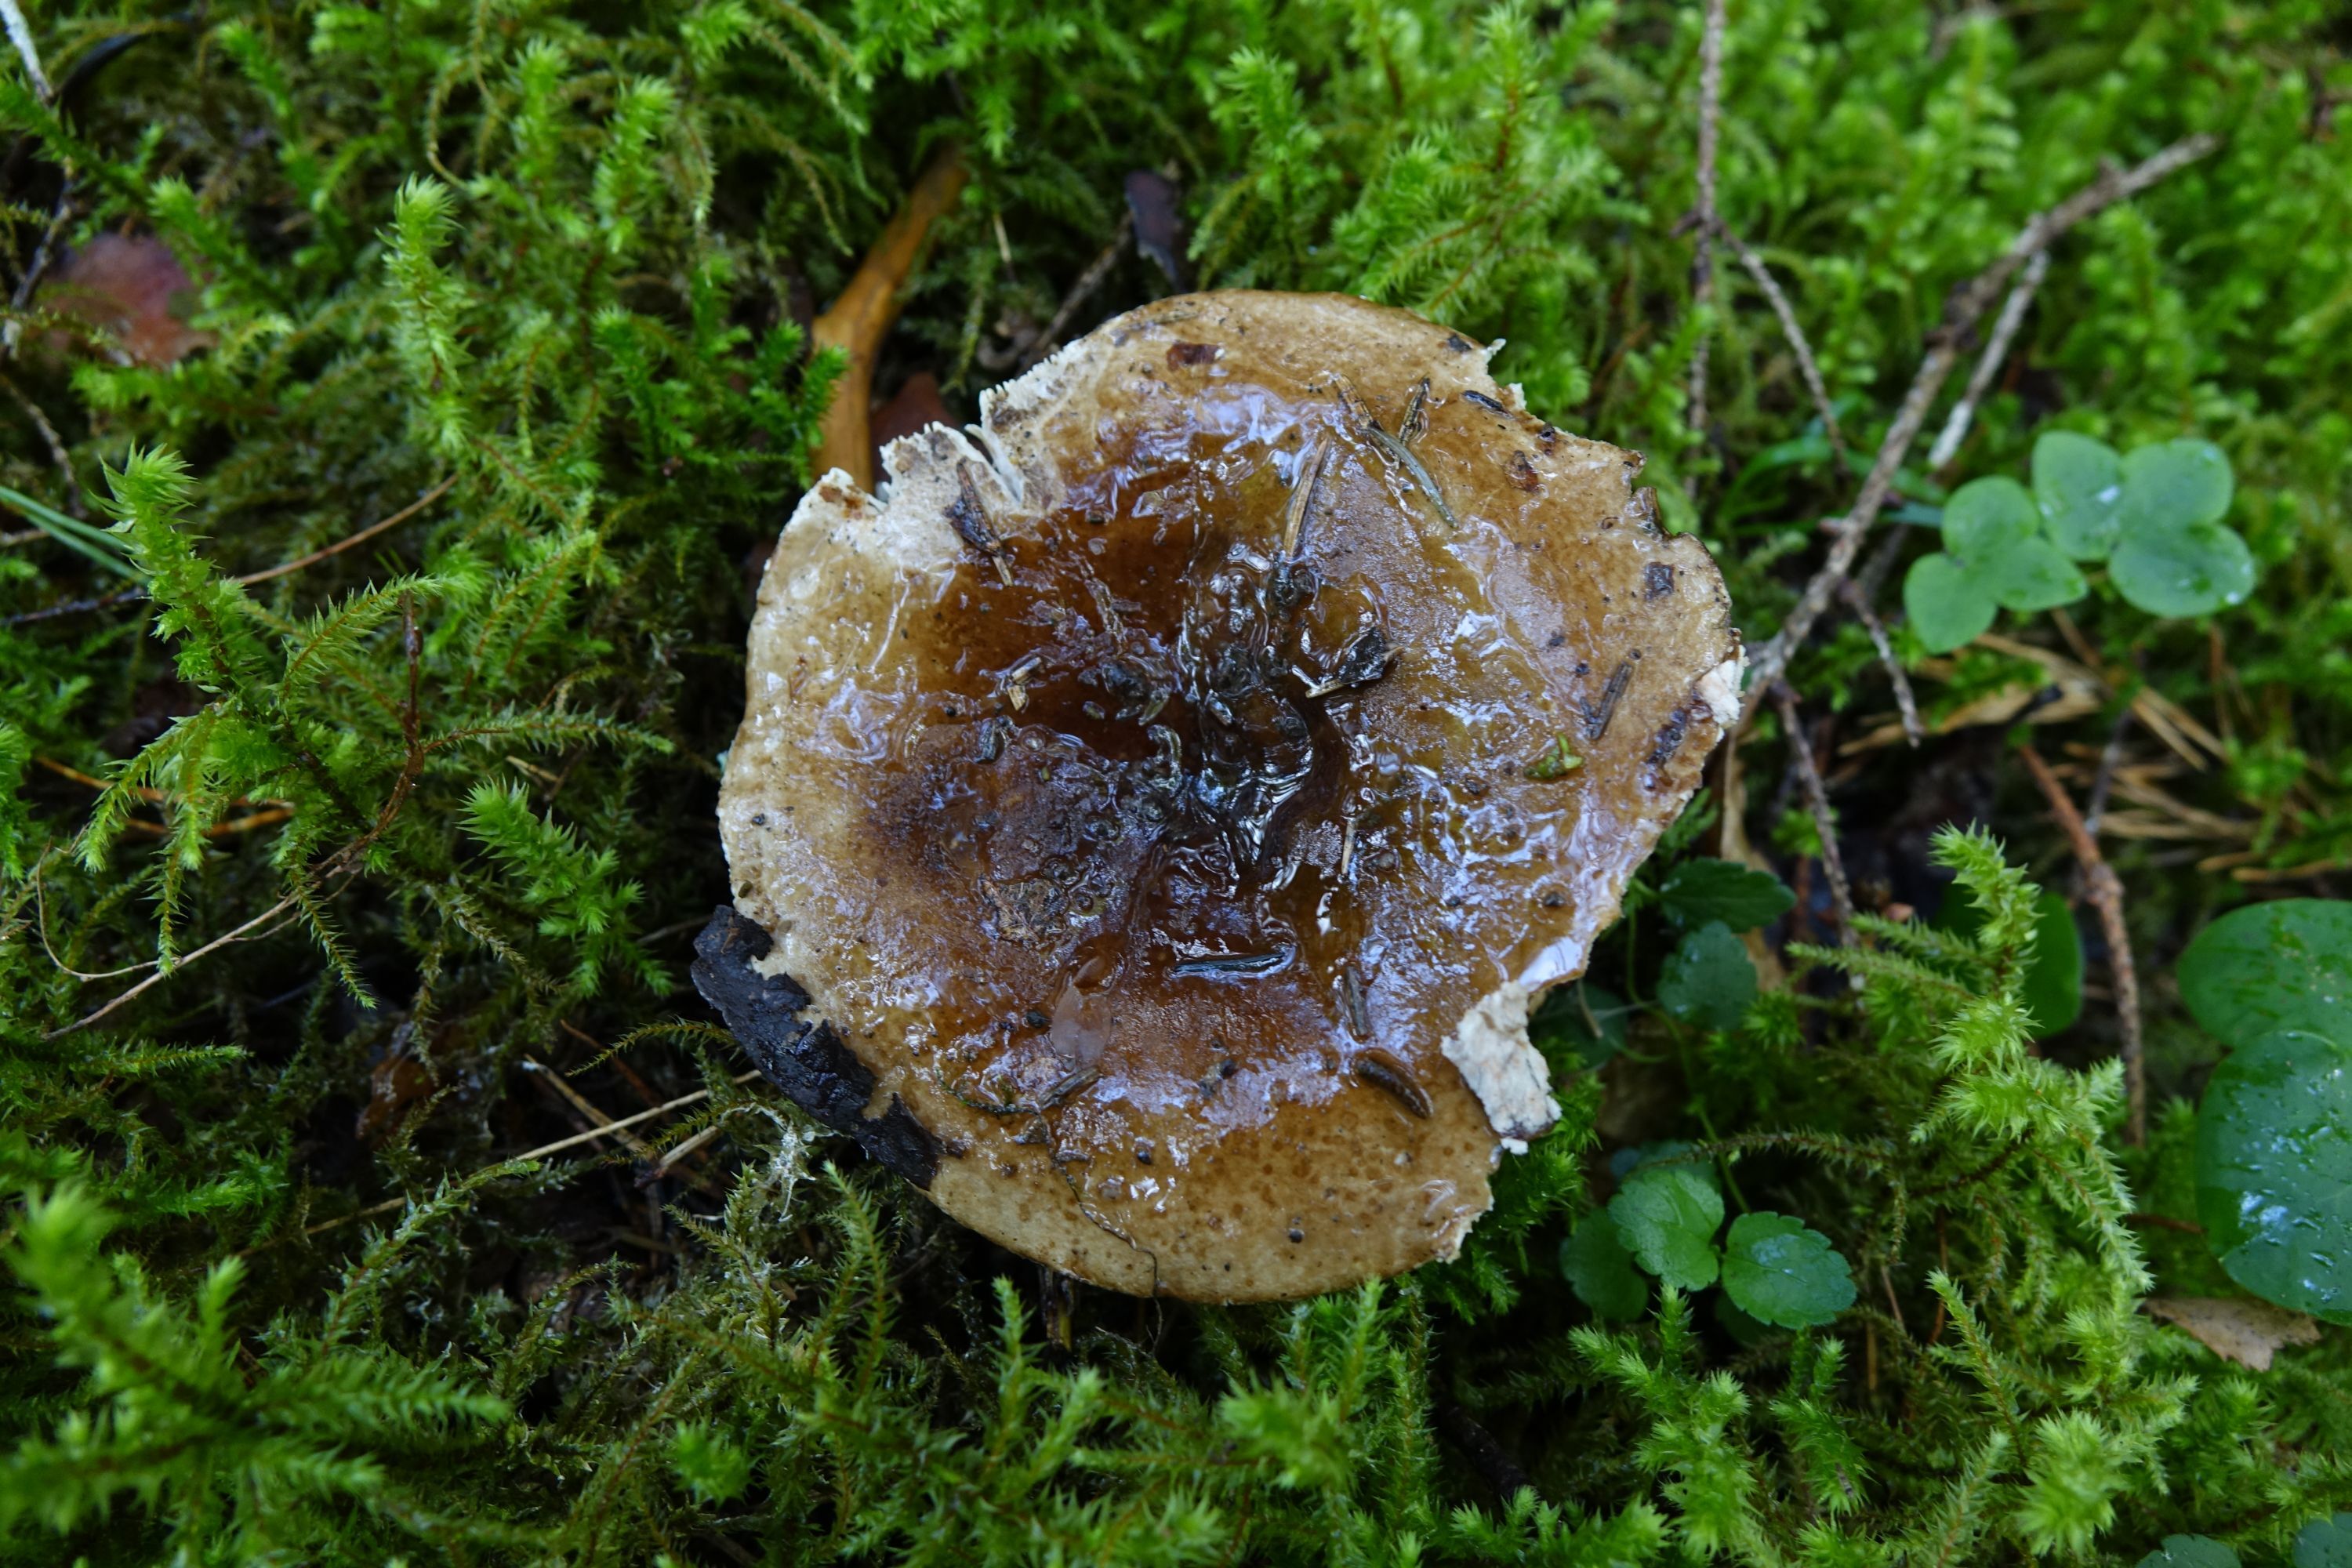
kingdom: Fungi
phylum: Basidiomycota
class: Agaricomycetes
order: Russulales
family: Russulaceae
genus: Russula
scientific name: Russula acrifolia
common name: Hotlips brittlegill
